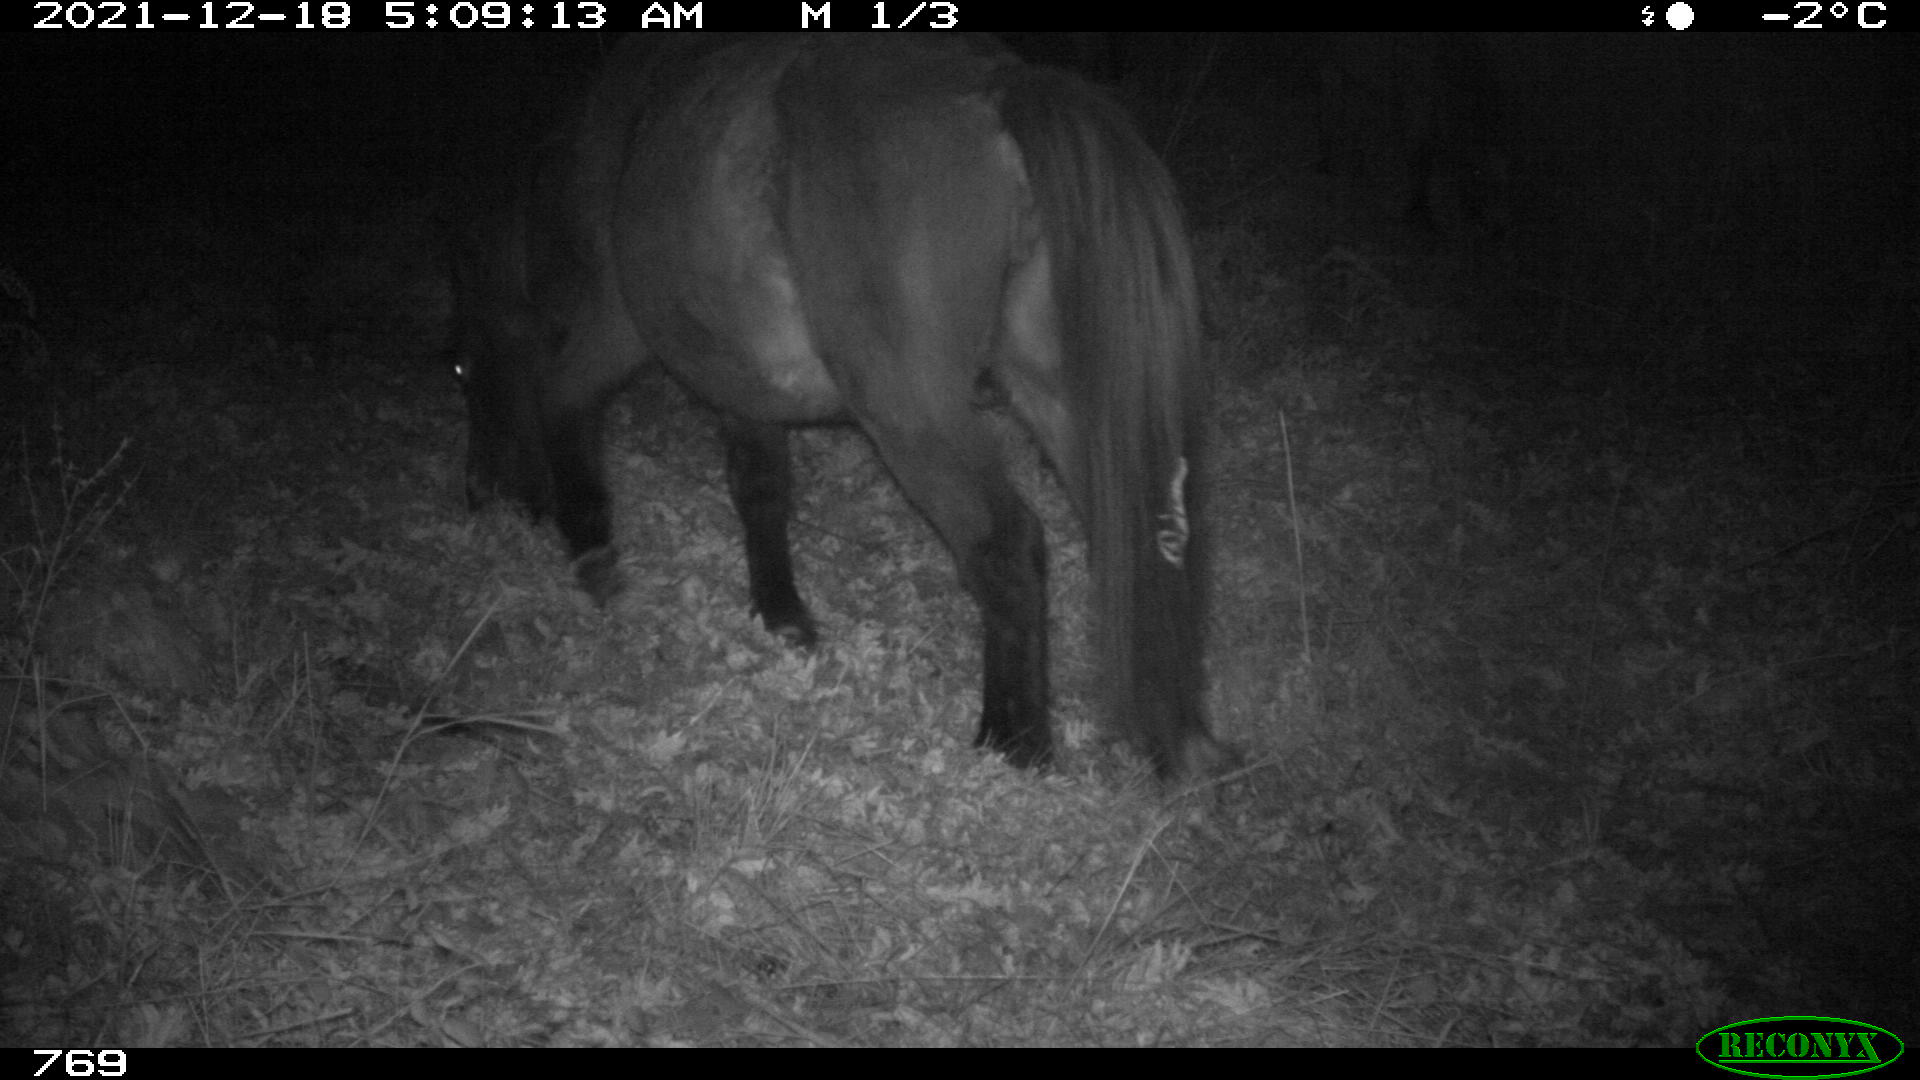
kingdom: Animalia
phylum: Chordata
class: Mammalia
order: Perissodactyla
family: Equidae
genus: Equus
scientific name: Equus caballus
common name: Horse
